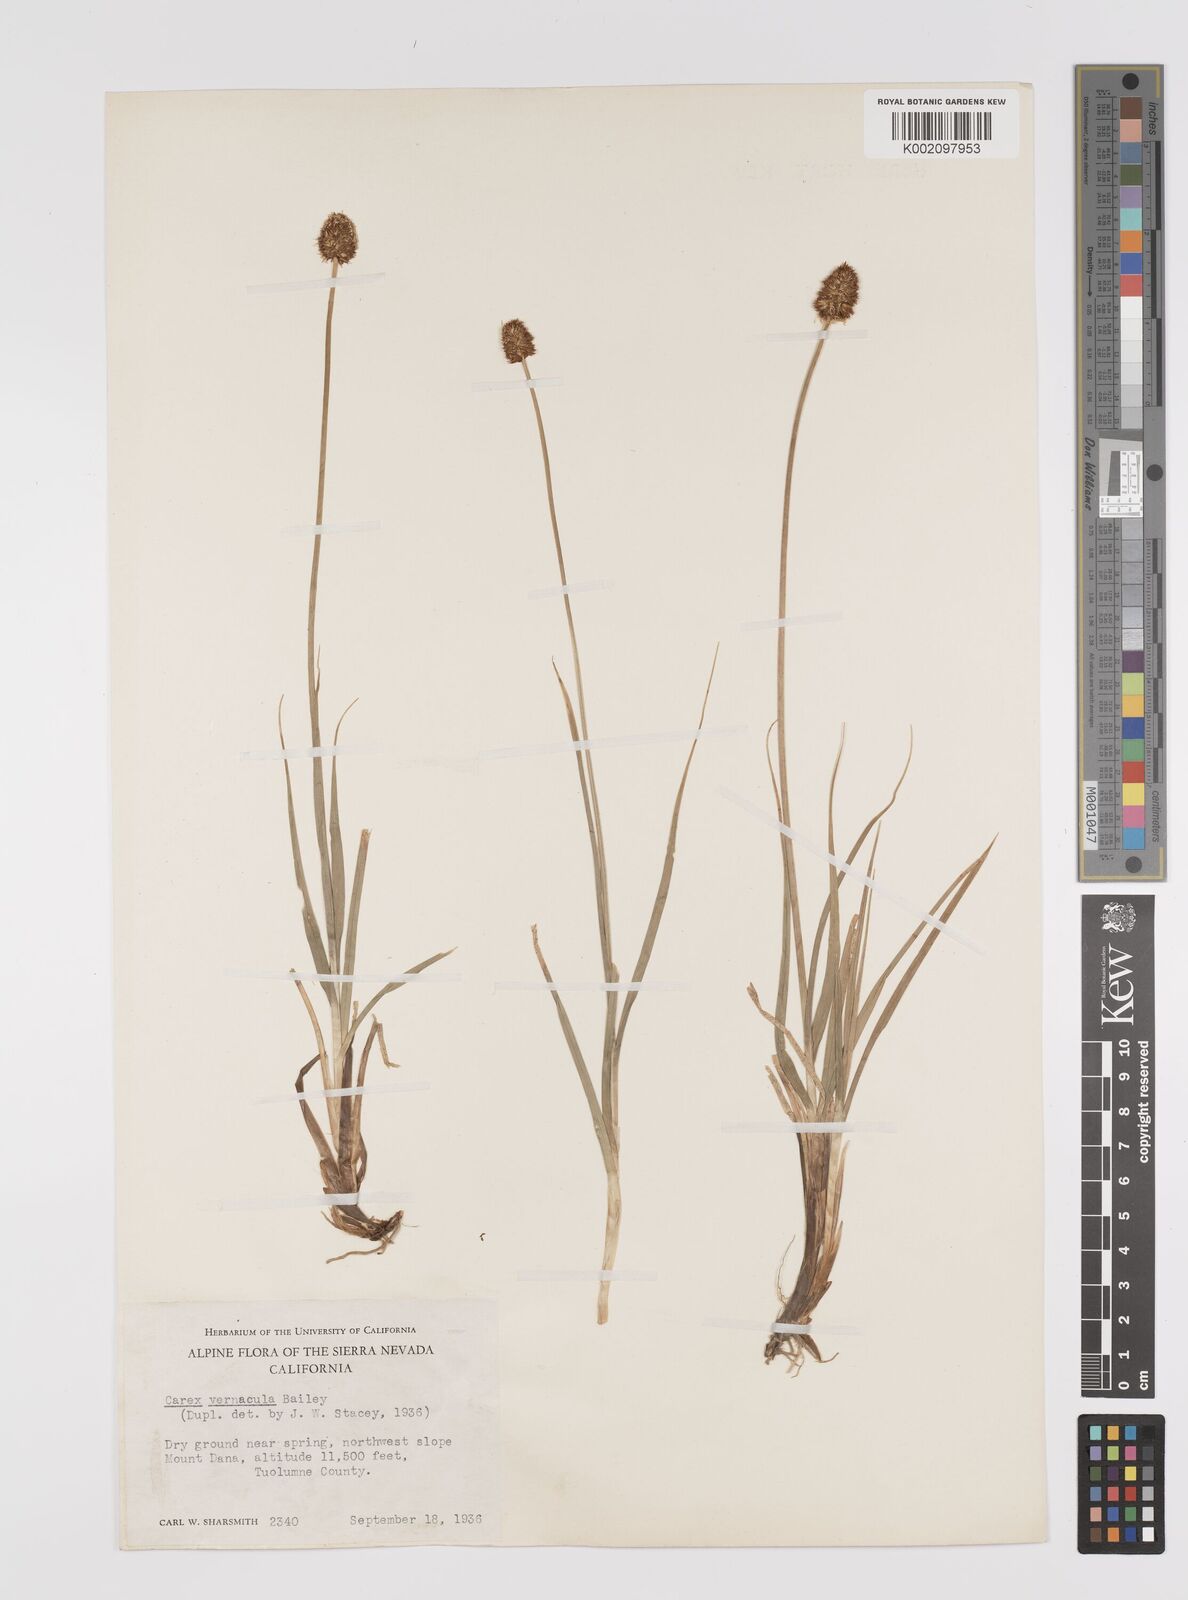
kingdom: Plantae
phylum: Tracheophyta
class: Liliopsida
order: Poales
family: Cyperaceae
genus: Carex
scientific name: Carex vernacula
